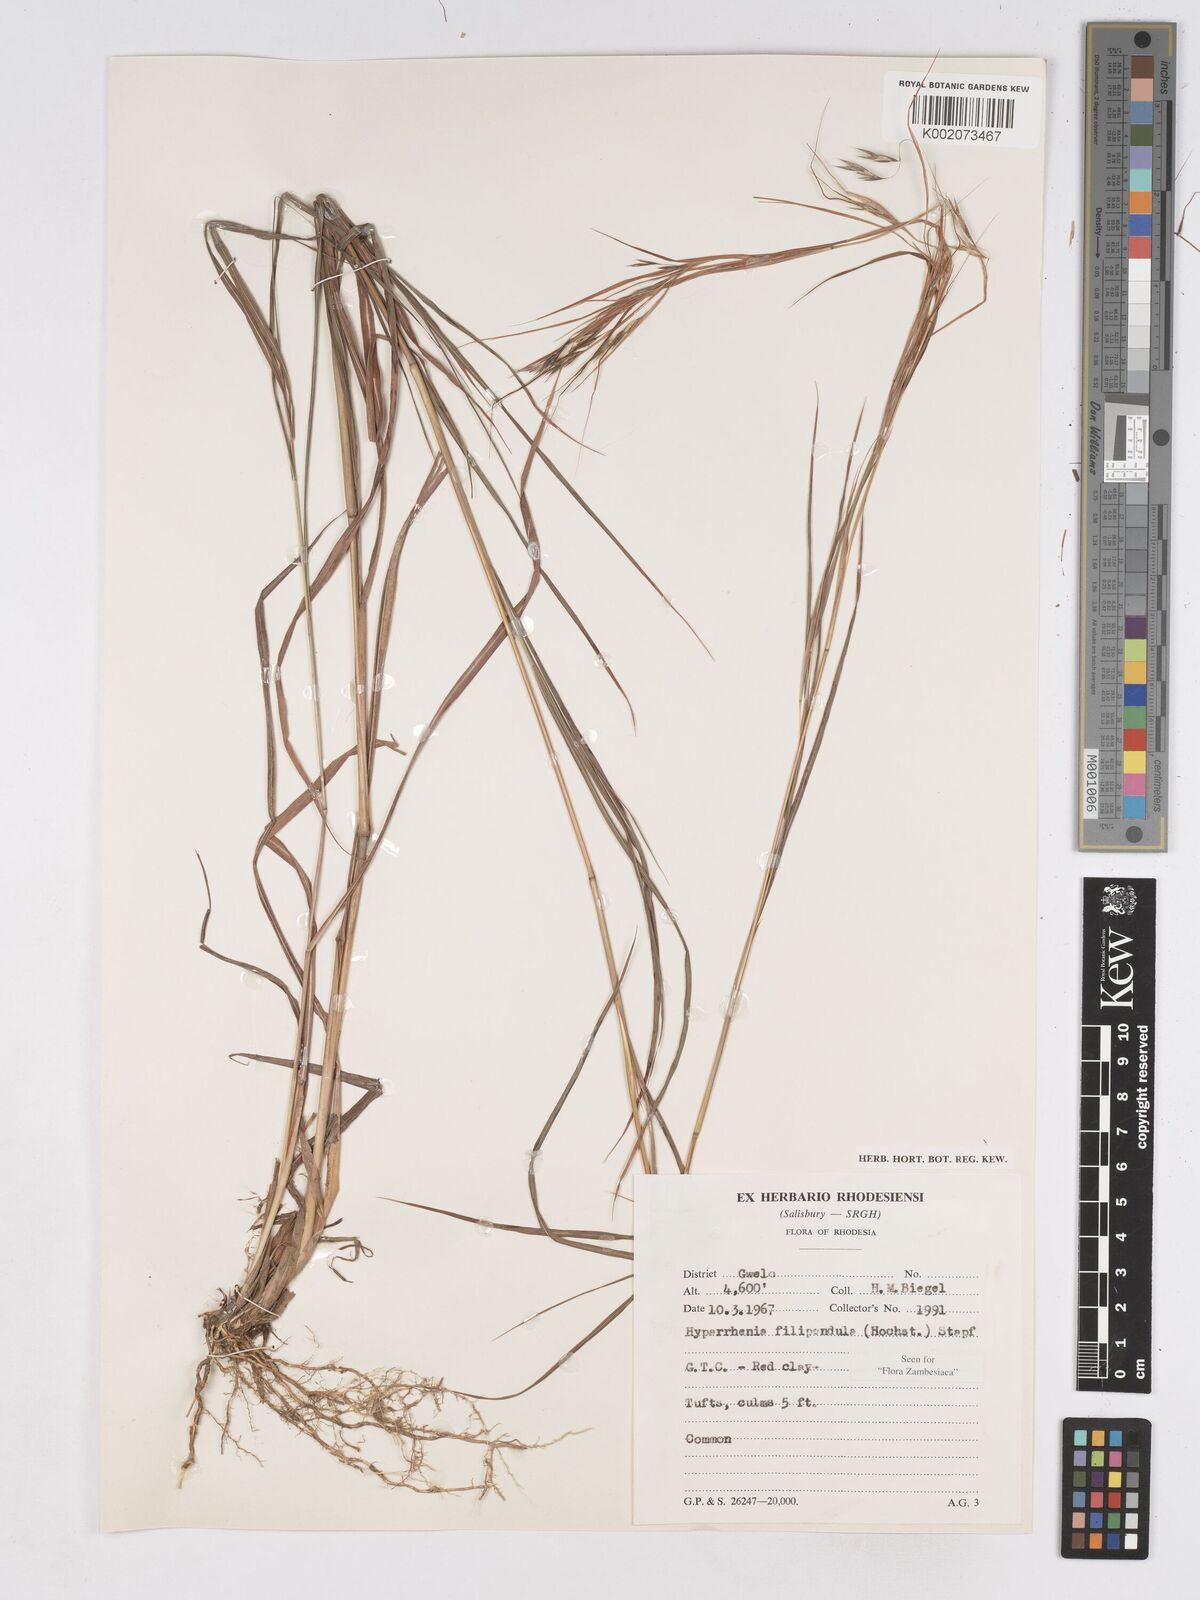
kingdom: Plantae
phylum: Tracheophyta
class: Liliopsida
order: Poales
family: Poaceae
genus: Hyparrhenia
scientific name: Hyparrhenia filipendula
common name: Tambookie grass
